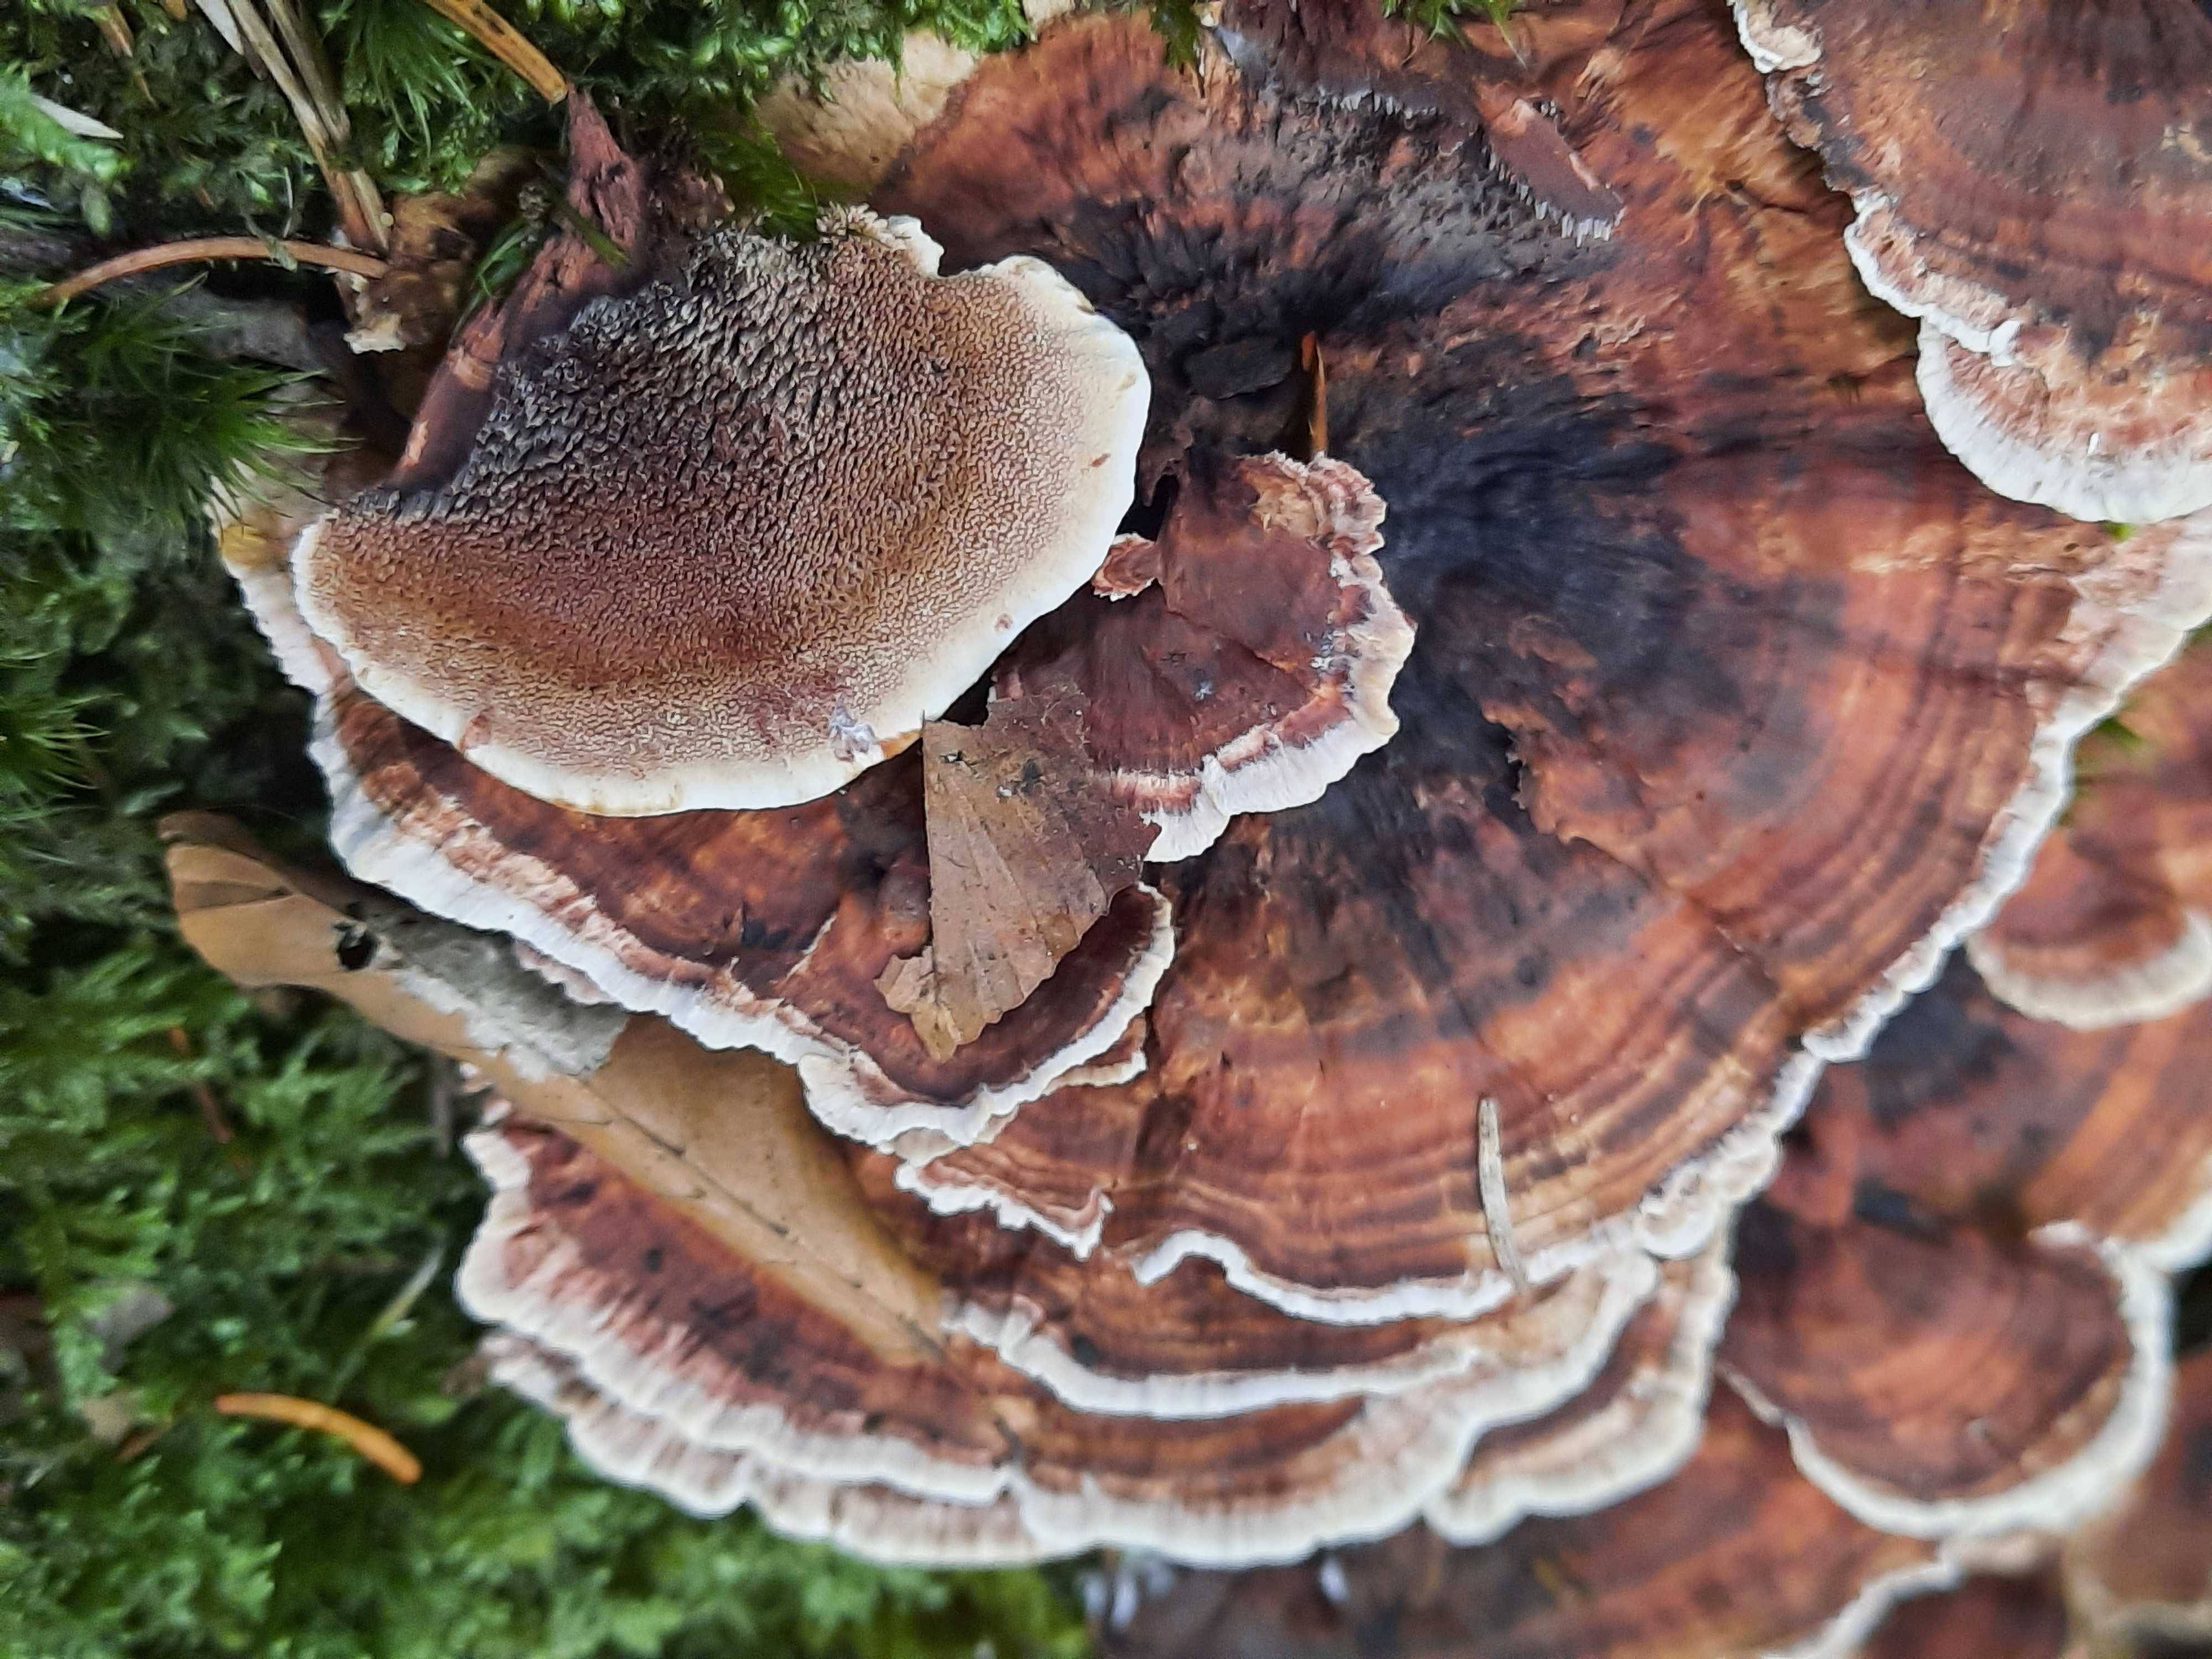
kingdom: Fungi
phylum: Basidiomycota
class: Agaricomycetes
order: Thelephorales
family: Bankeraceae
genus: Hydnellum
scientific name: Hydnellum concrescens
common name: bæltet korkpigsvamp
